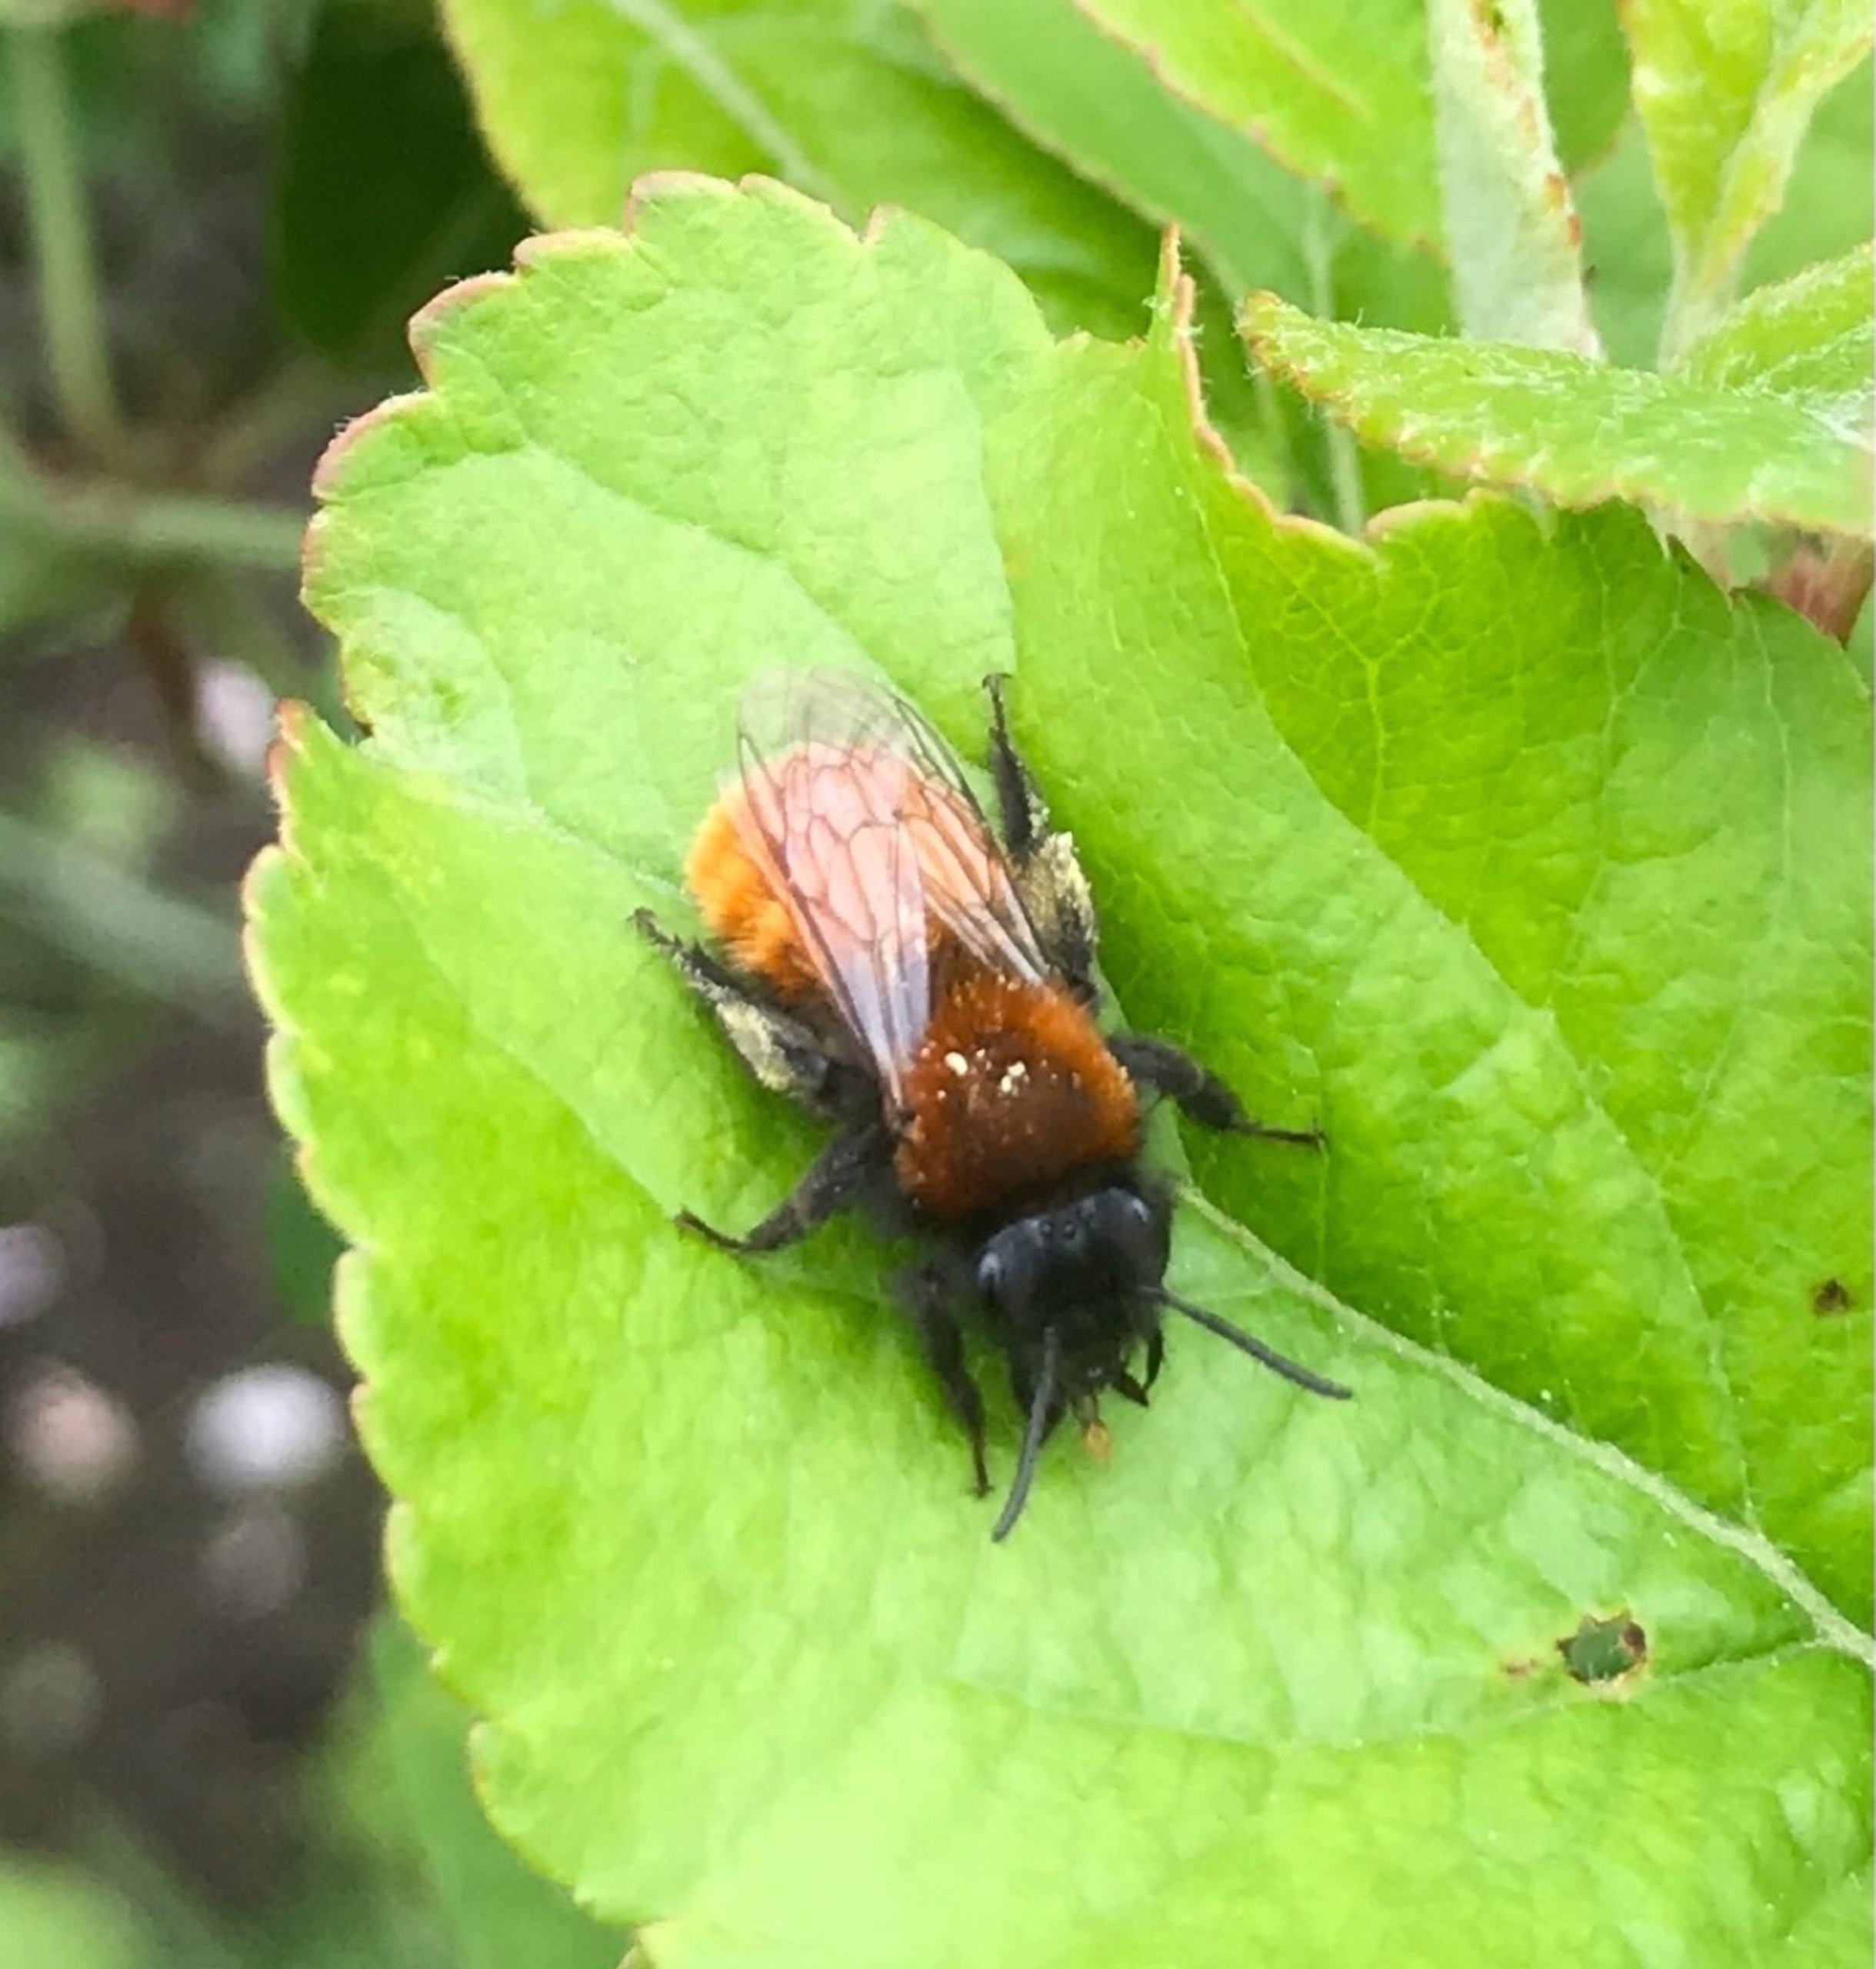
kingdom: Animalia
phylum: Arthropoda
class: Insecta
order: Hymenoptera
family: Andrenidae
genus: Andrena
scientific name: Andrena fulva
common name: Rødpelset jordbi
